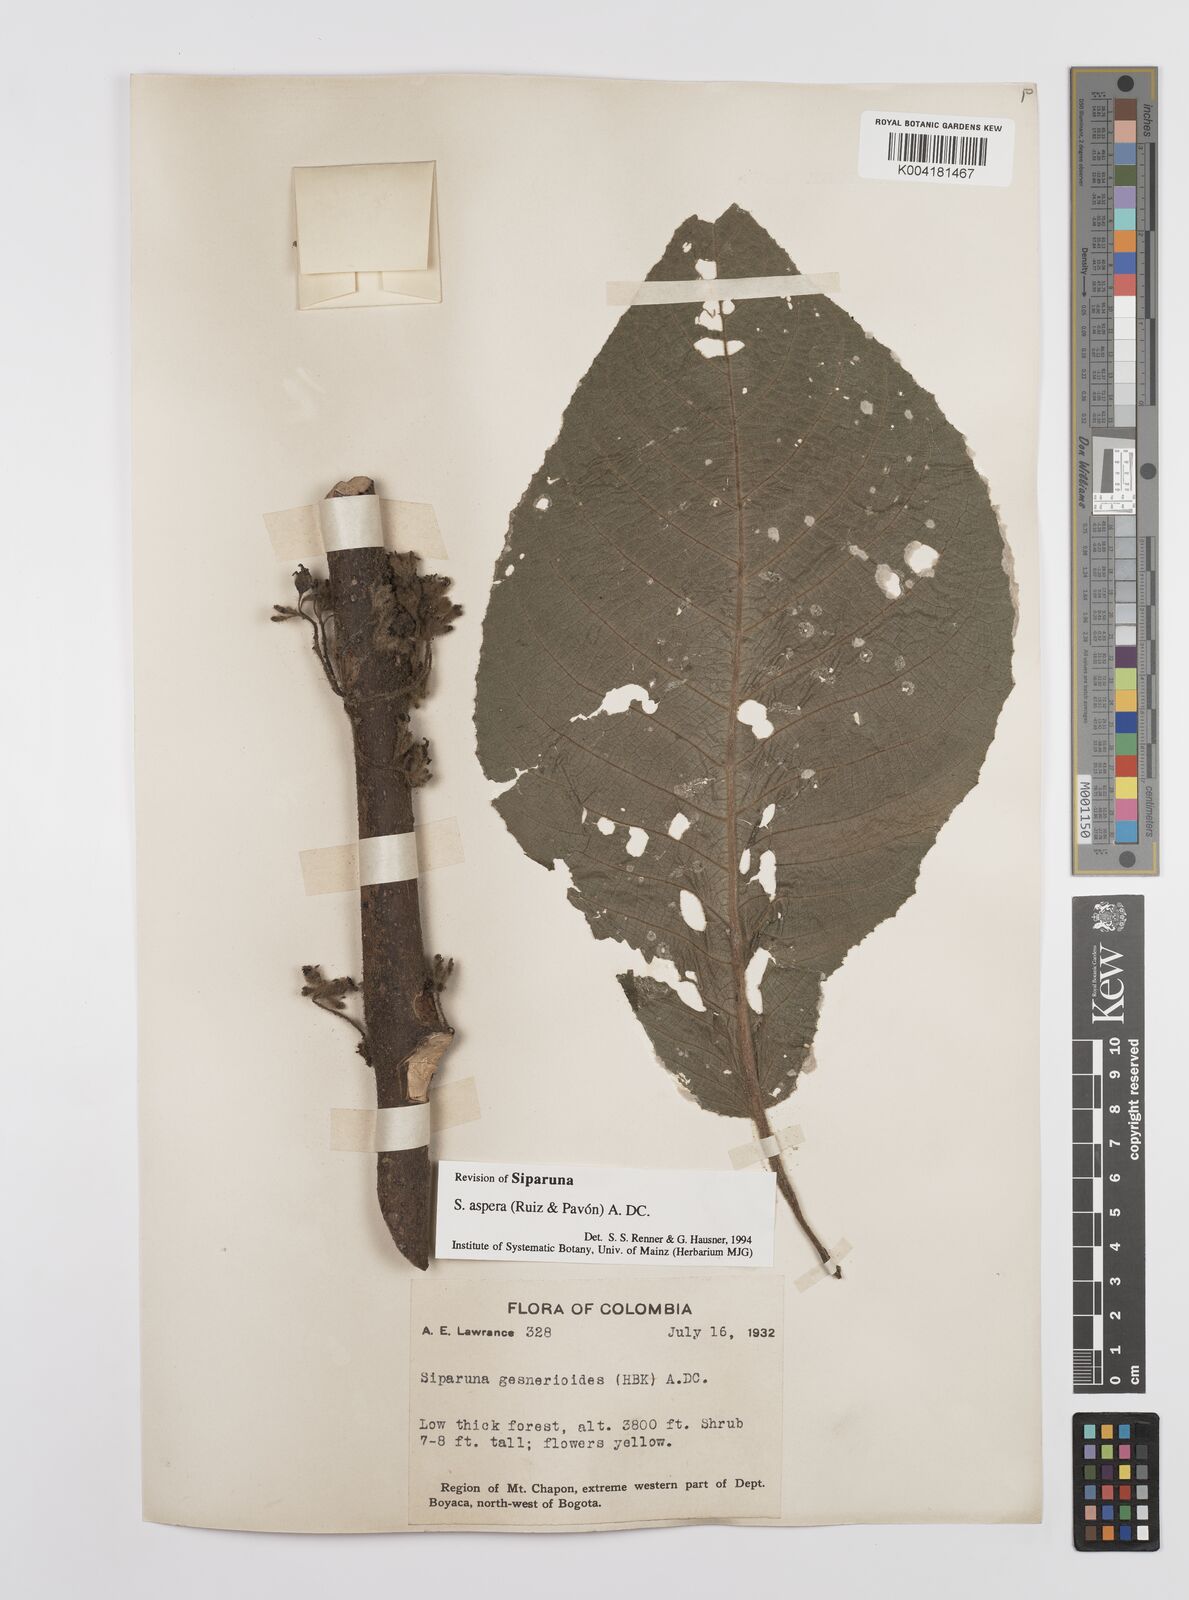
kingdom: Plantae
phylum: Tracheophyta
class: Magnoliopsida
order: Laurales
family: Siparunaceae
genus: Siparuna
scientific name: Siparuna aspera
